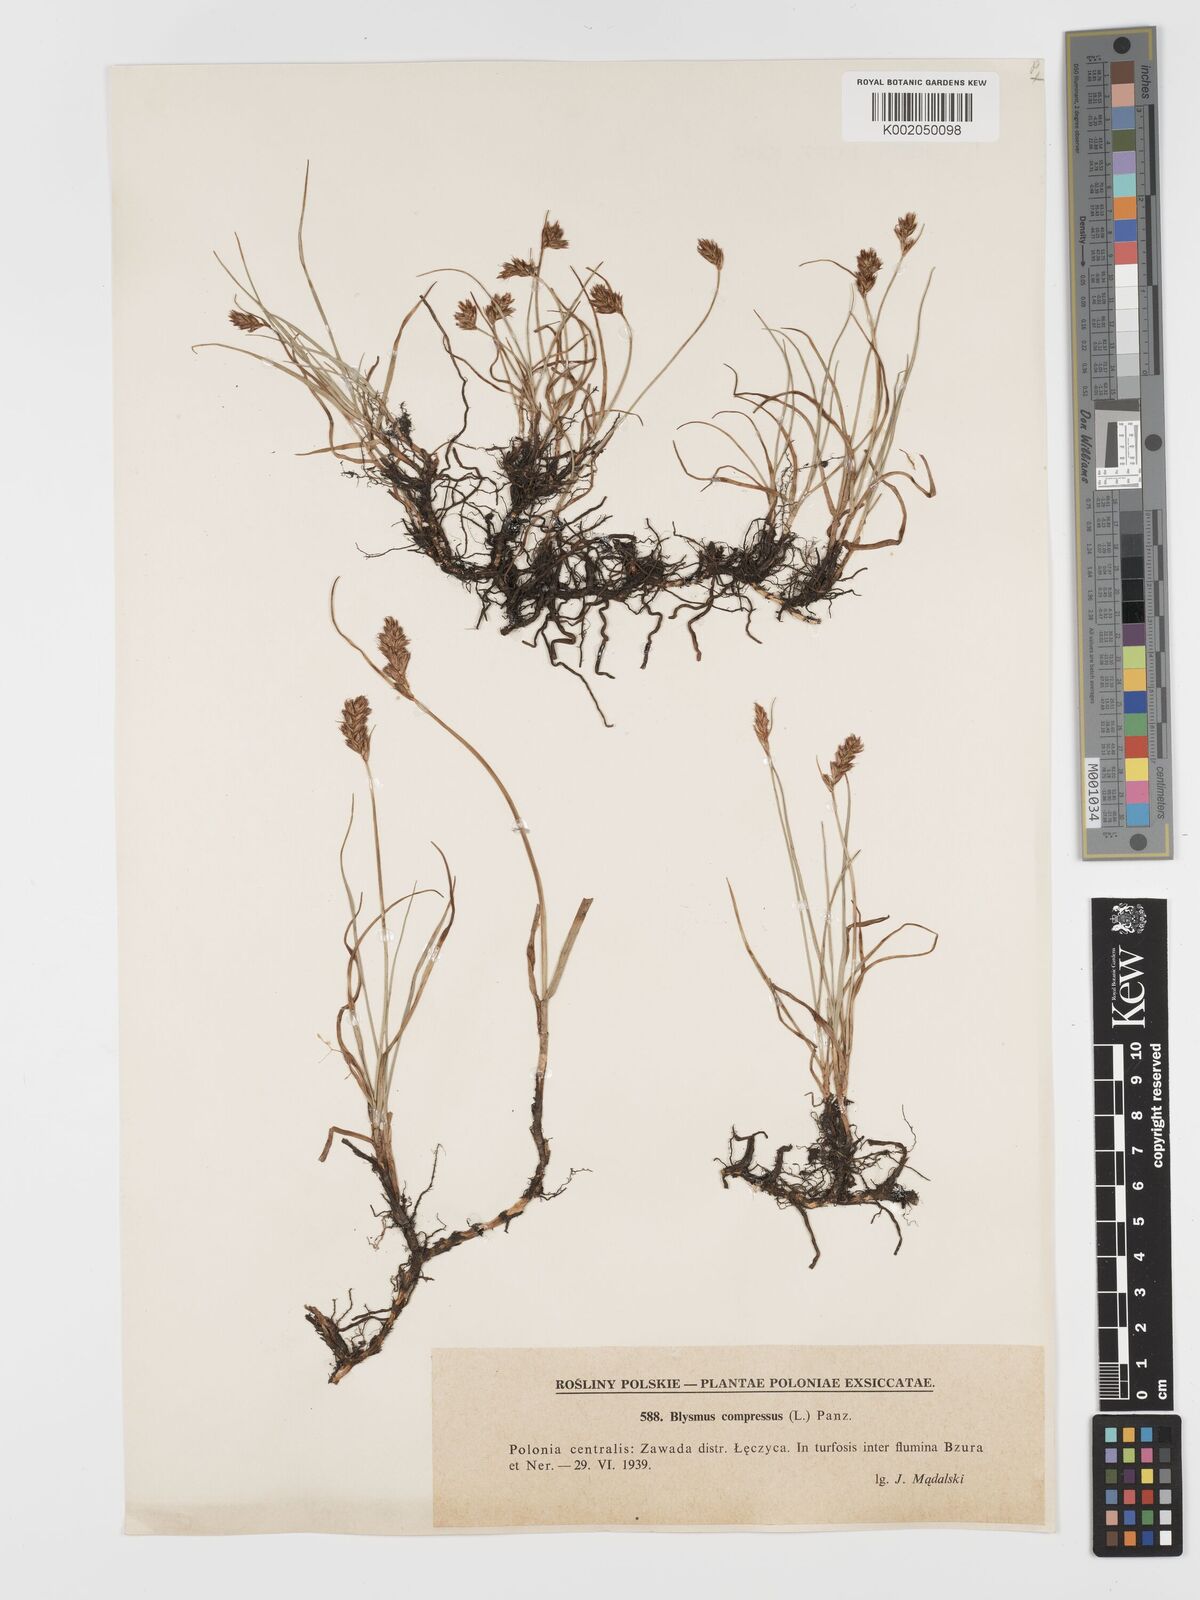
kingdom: Plantae
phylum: Tracheophyta
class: Liliopsida
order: Poales
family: Cyperaceae
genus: Blysmus
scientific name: Blysmus compressus
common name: Flat-sedge
